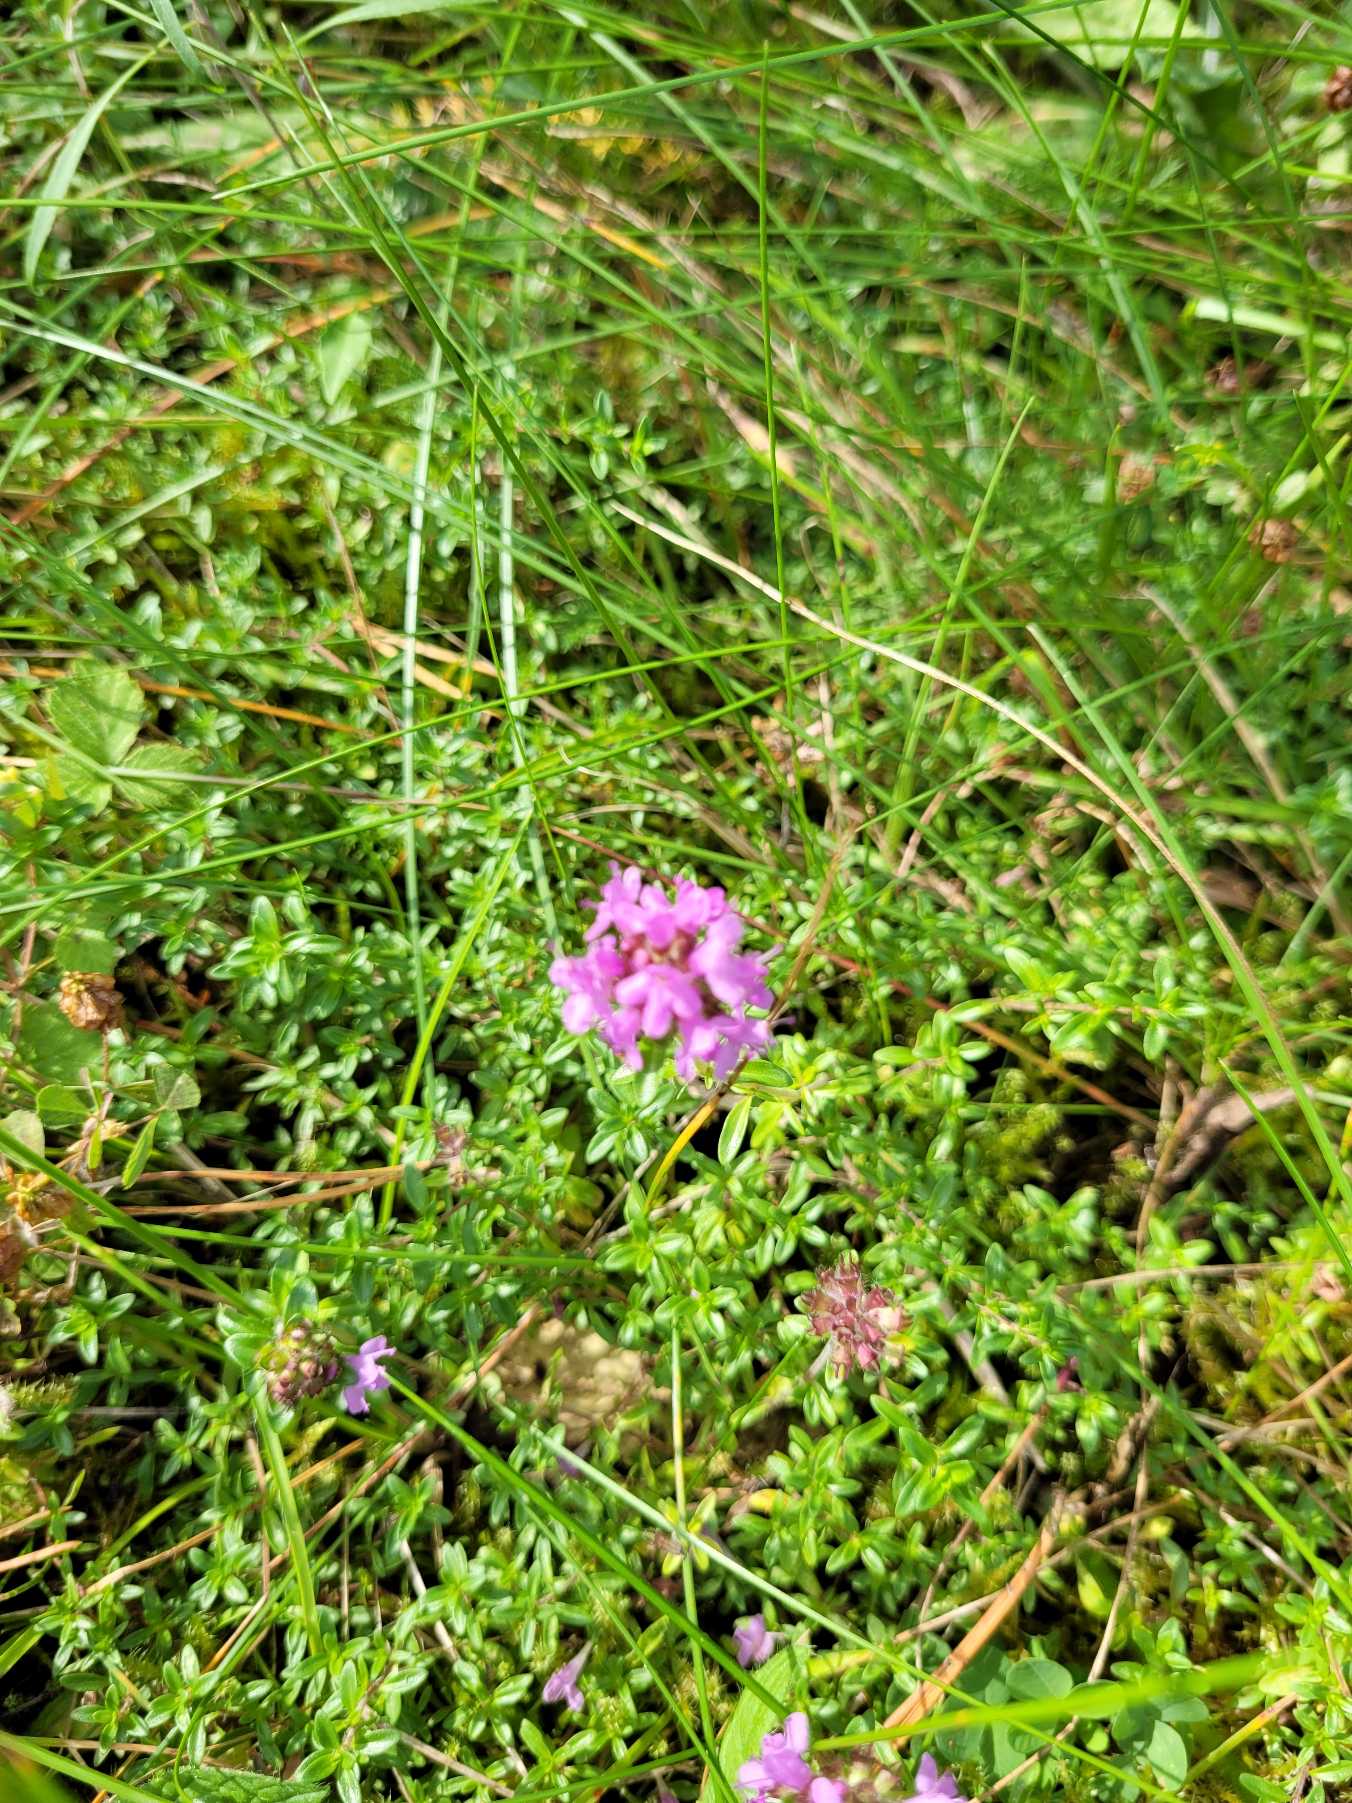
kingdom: Plantae
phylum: Tracheophyta
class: Magnoliopsida
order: Lamiales
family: Lamiaceae
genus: Thymus
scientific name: Thymus serpyllum
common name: Smalbladet timian
